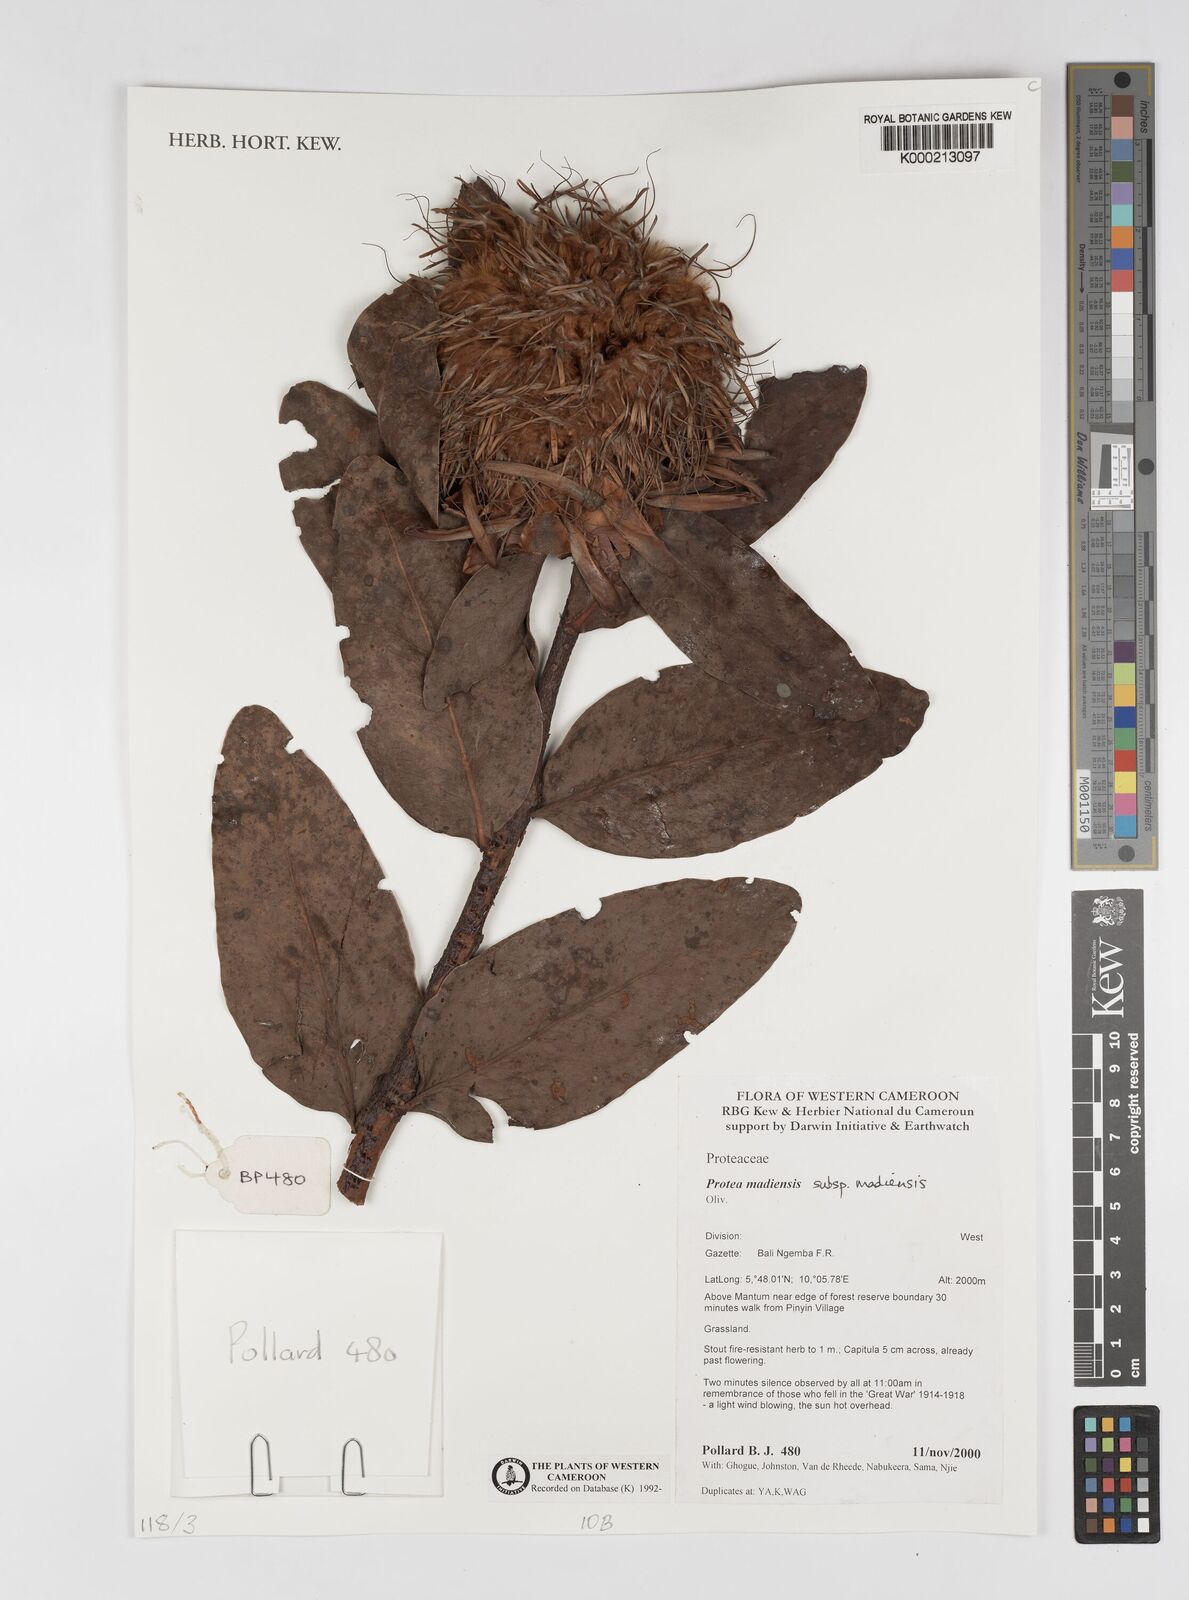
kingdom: Plantae
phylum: Tracheophyta
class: Magnoliopsida
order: Proteales
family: Proteaceae
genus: Protea
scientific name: Protea madiensis
